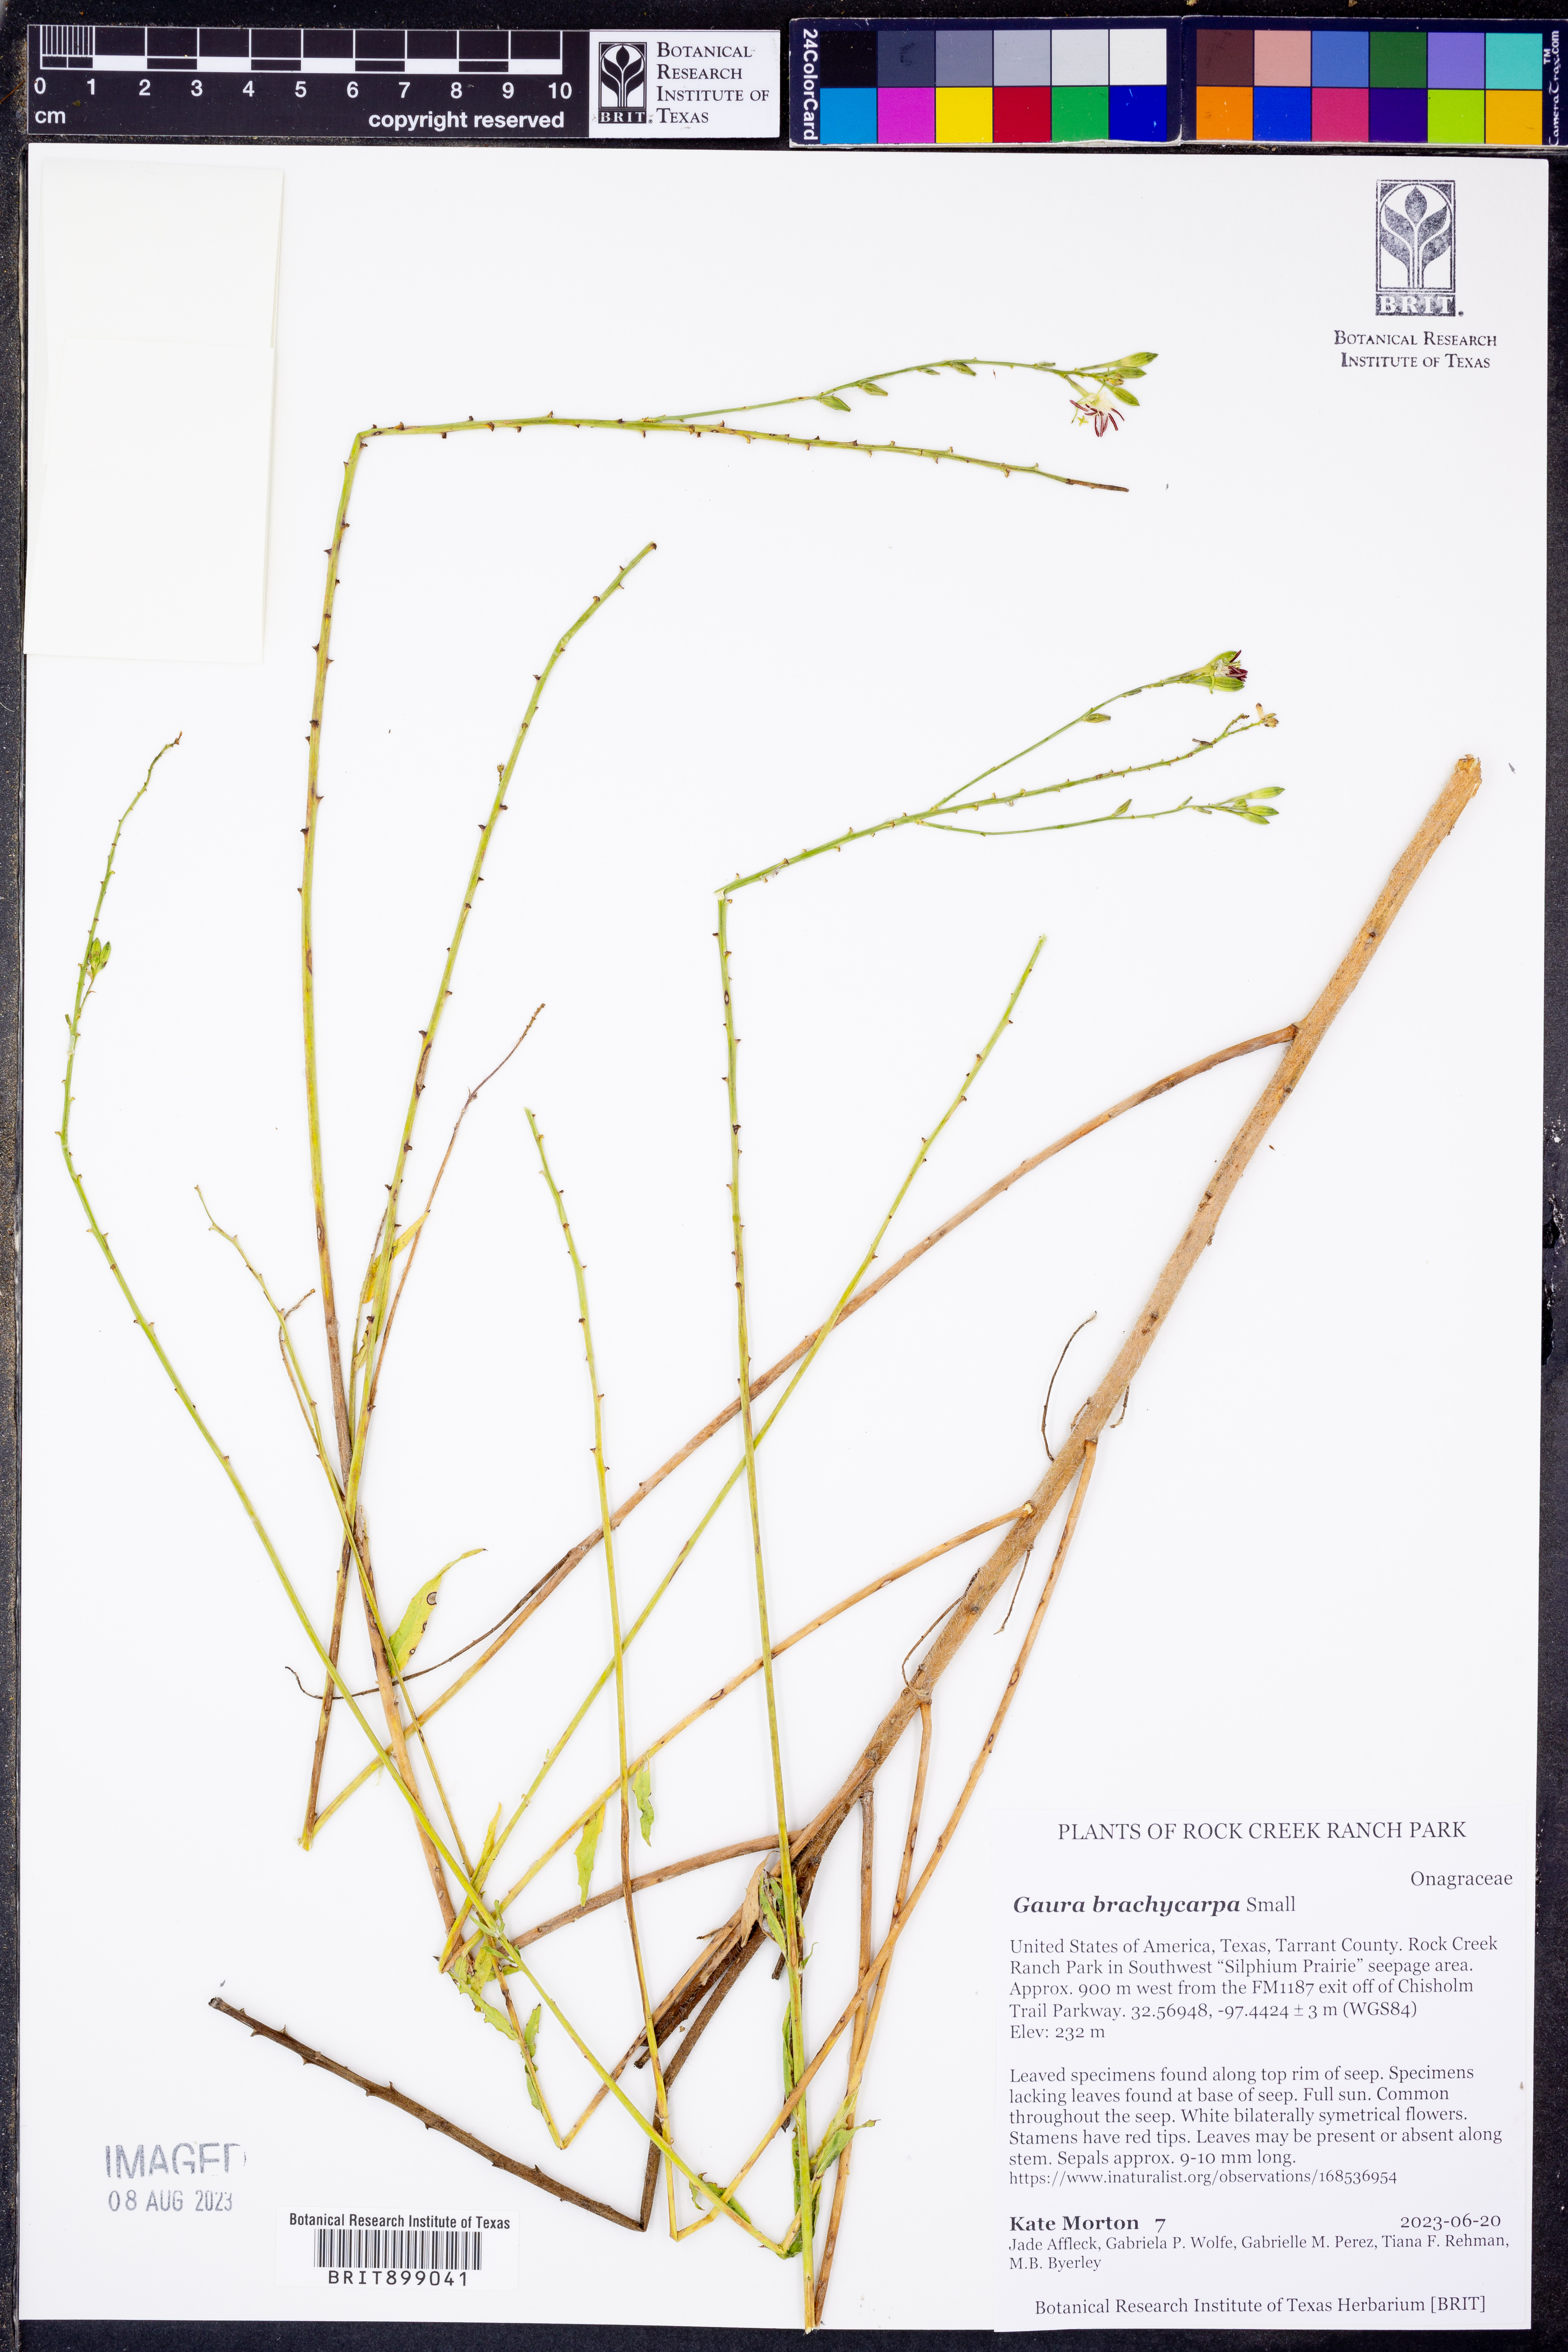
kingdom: Plantae
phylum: Tracheophyta
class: Magnoliopsida
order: Myrtales
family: Onagraceae
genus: Oenothera
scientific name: Oenothera patriciae
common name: Plains beeblossom
